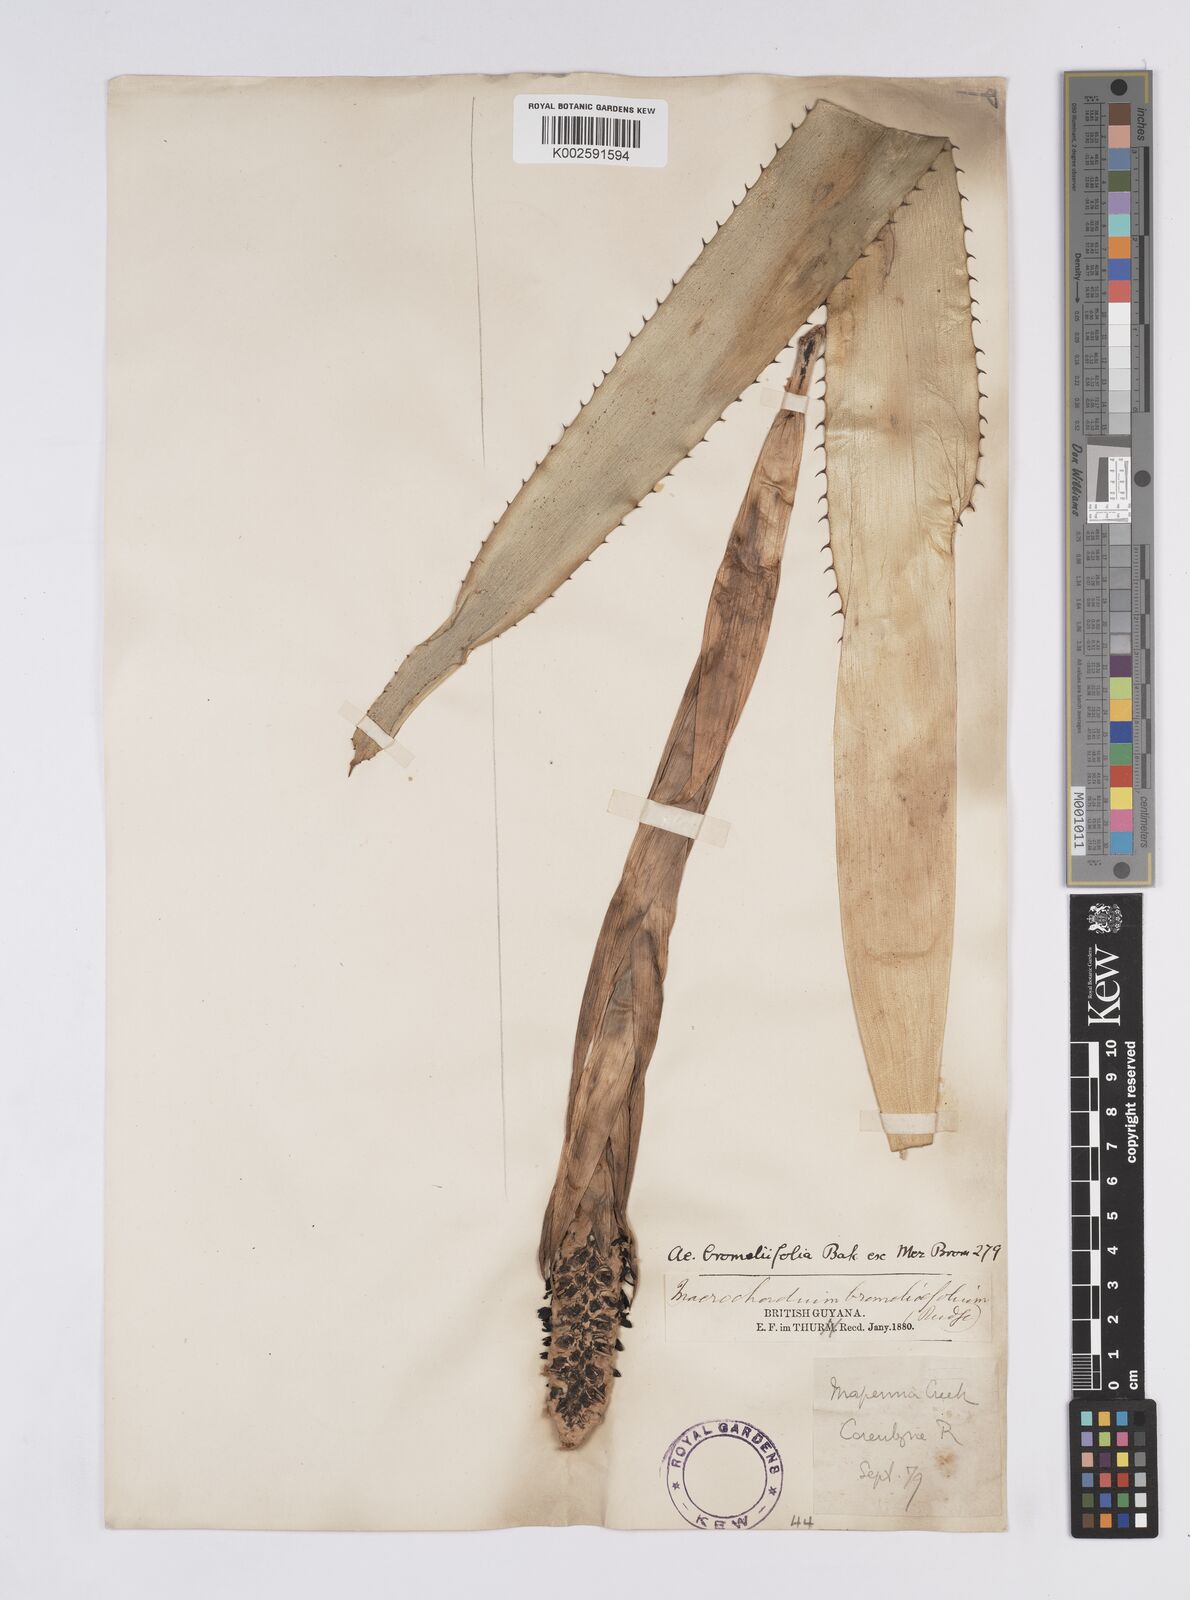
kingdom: Plantae
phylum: Tracheophyta
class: Liliopsida
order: Poales
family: Bromeliaceae
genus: Aechmea
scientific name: Aechmea bromeliifolia
